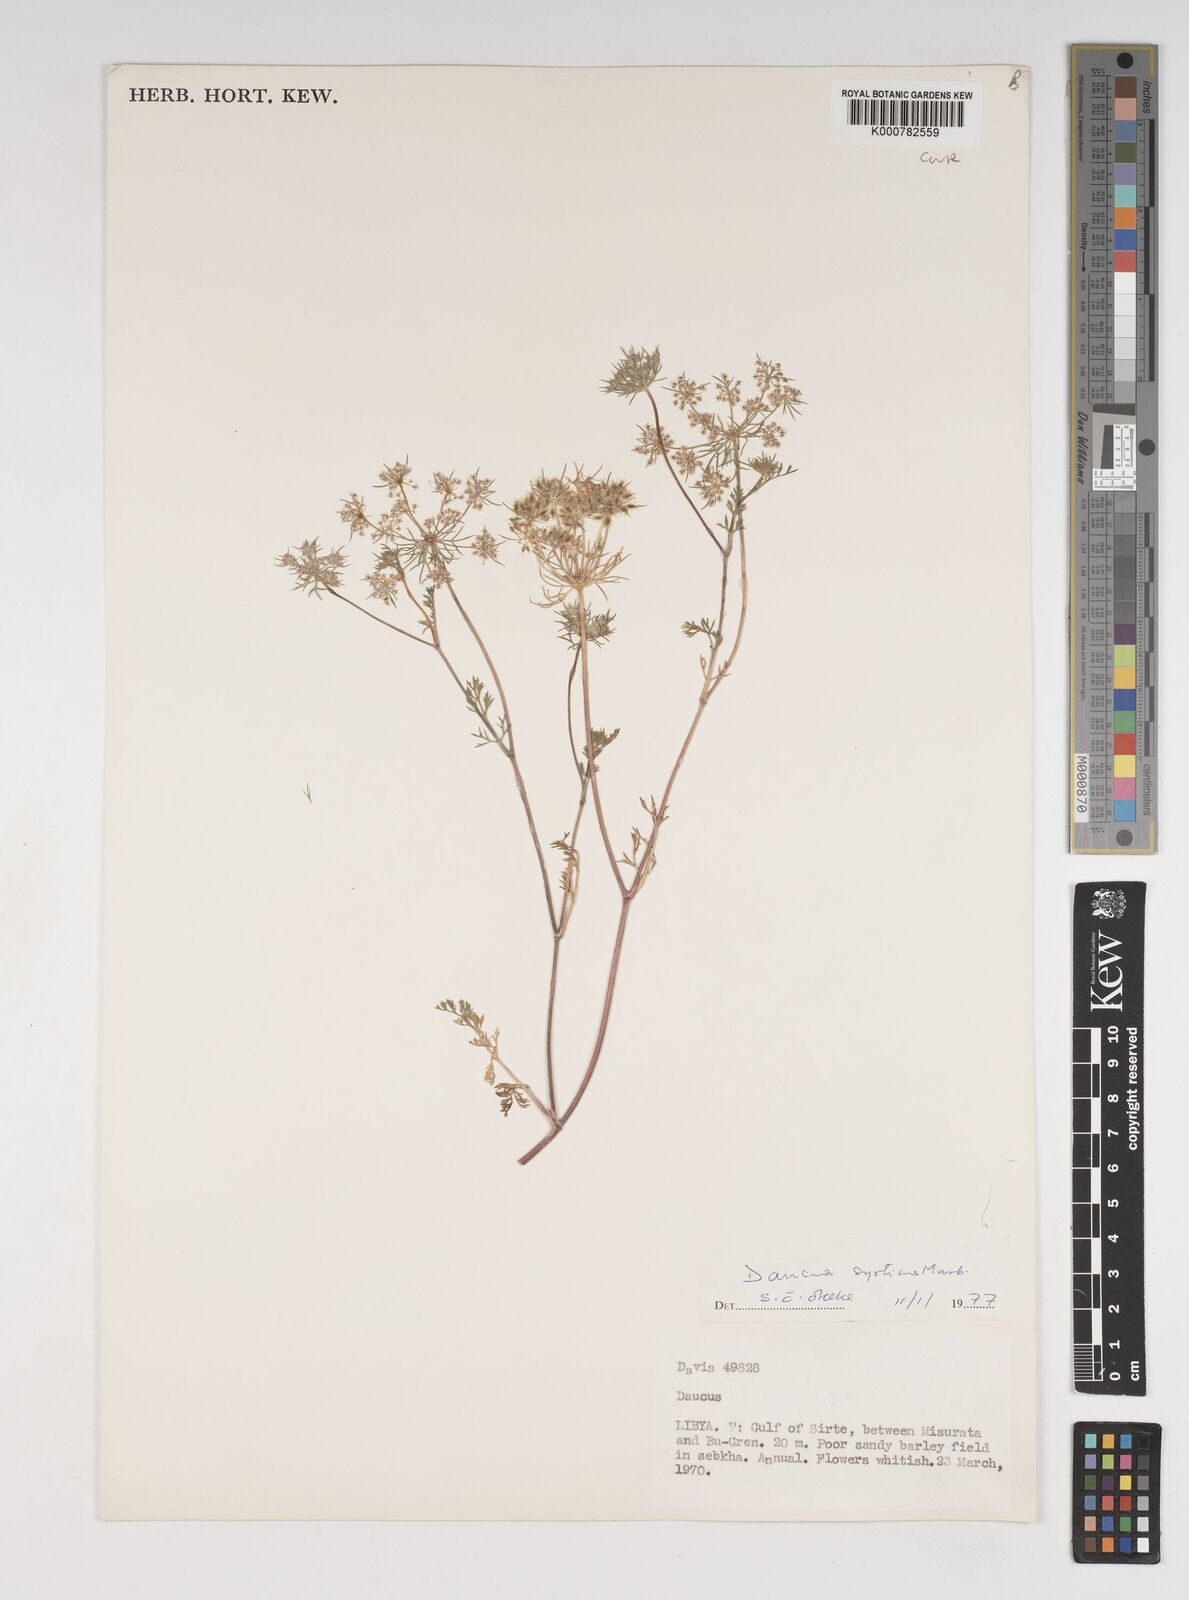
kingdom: Plantae
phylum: Tracheophyta
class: Magnoliopsida
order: Apiales
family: Apiaceae
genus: Daucus
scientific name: Daucus syrticus
